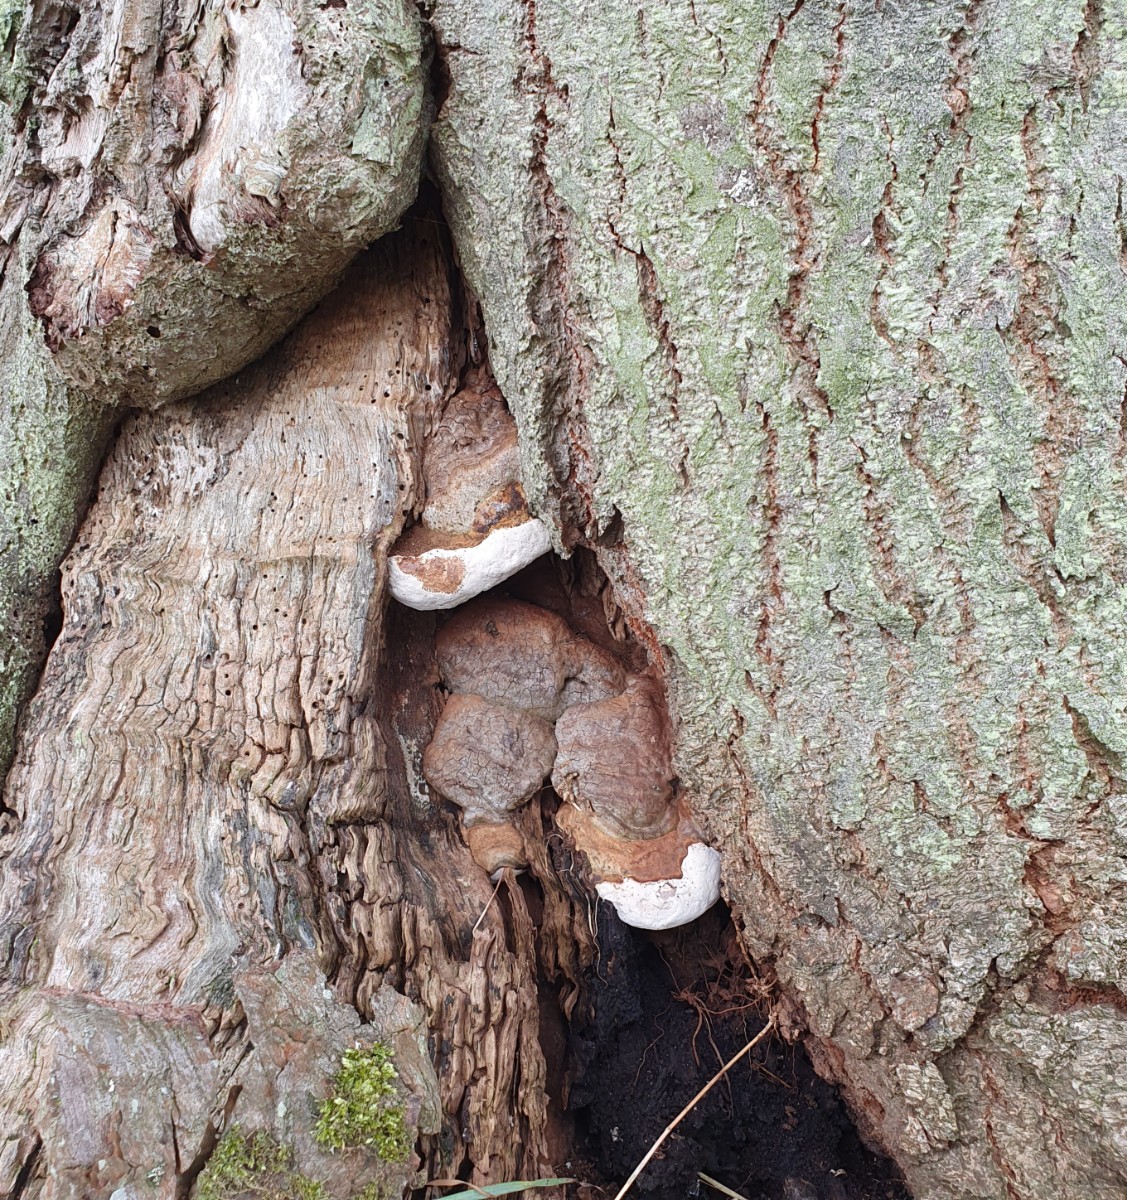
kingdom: Fungi
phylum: Basidiomycota
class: Agaricomycetes
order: Polyporales
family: Polyporaceae
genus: Ganoderma
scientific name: Ganoderma adspersum
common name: grov lakporesvamp
